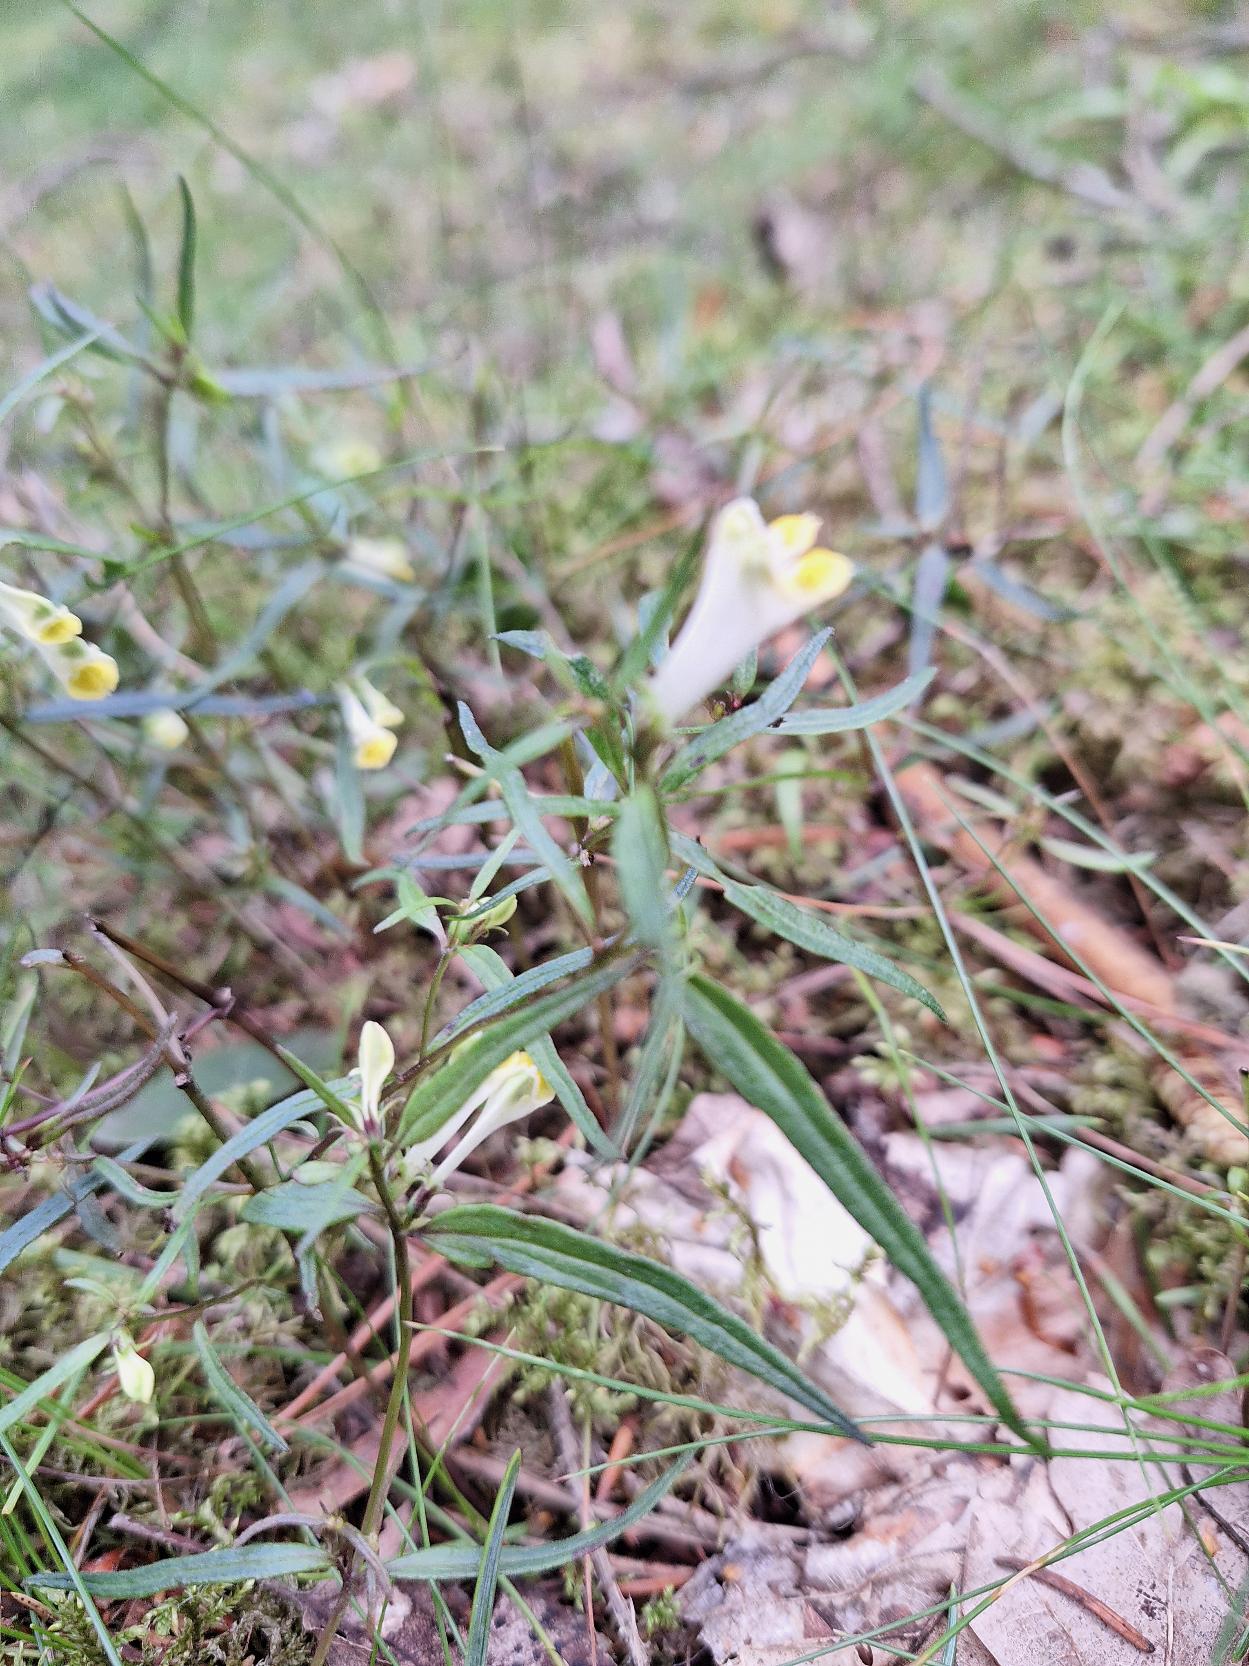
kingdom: Plantae
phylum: Tracheophyta
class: Magnoliopsida
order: Lamiales
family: Orobanchaceae
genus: Melampyrum
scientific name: Melampyrum pratense
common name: Almindelig kohvede
